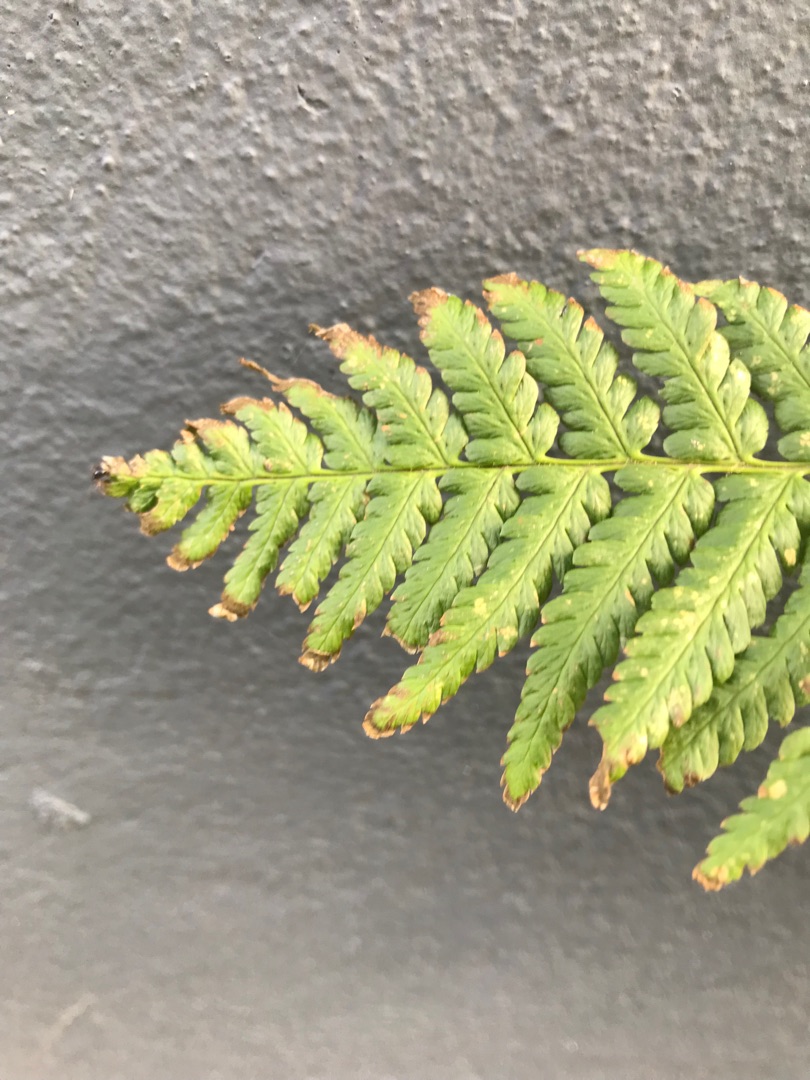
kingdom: Plantae
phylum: Tracheophyta
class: Polypodiopsida
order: Polypodiales
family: Dryopteridaceae
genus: Dryopteris
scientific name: Dryopteris filix-mas
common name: Almindelig mangeløv
